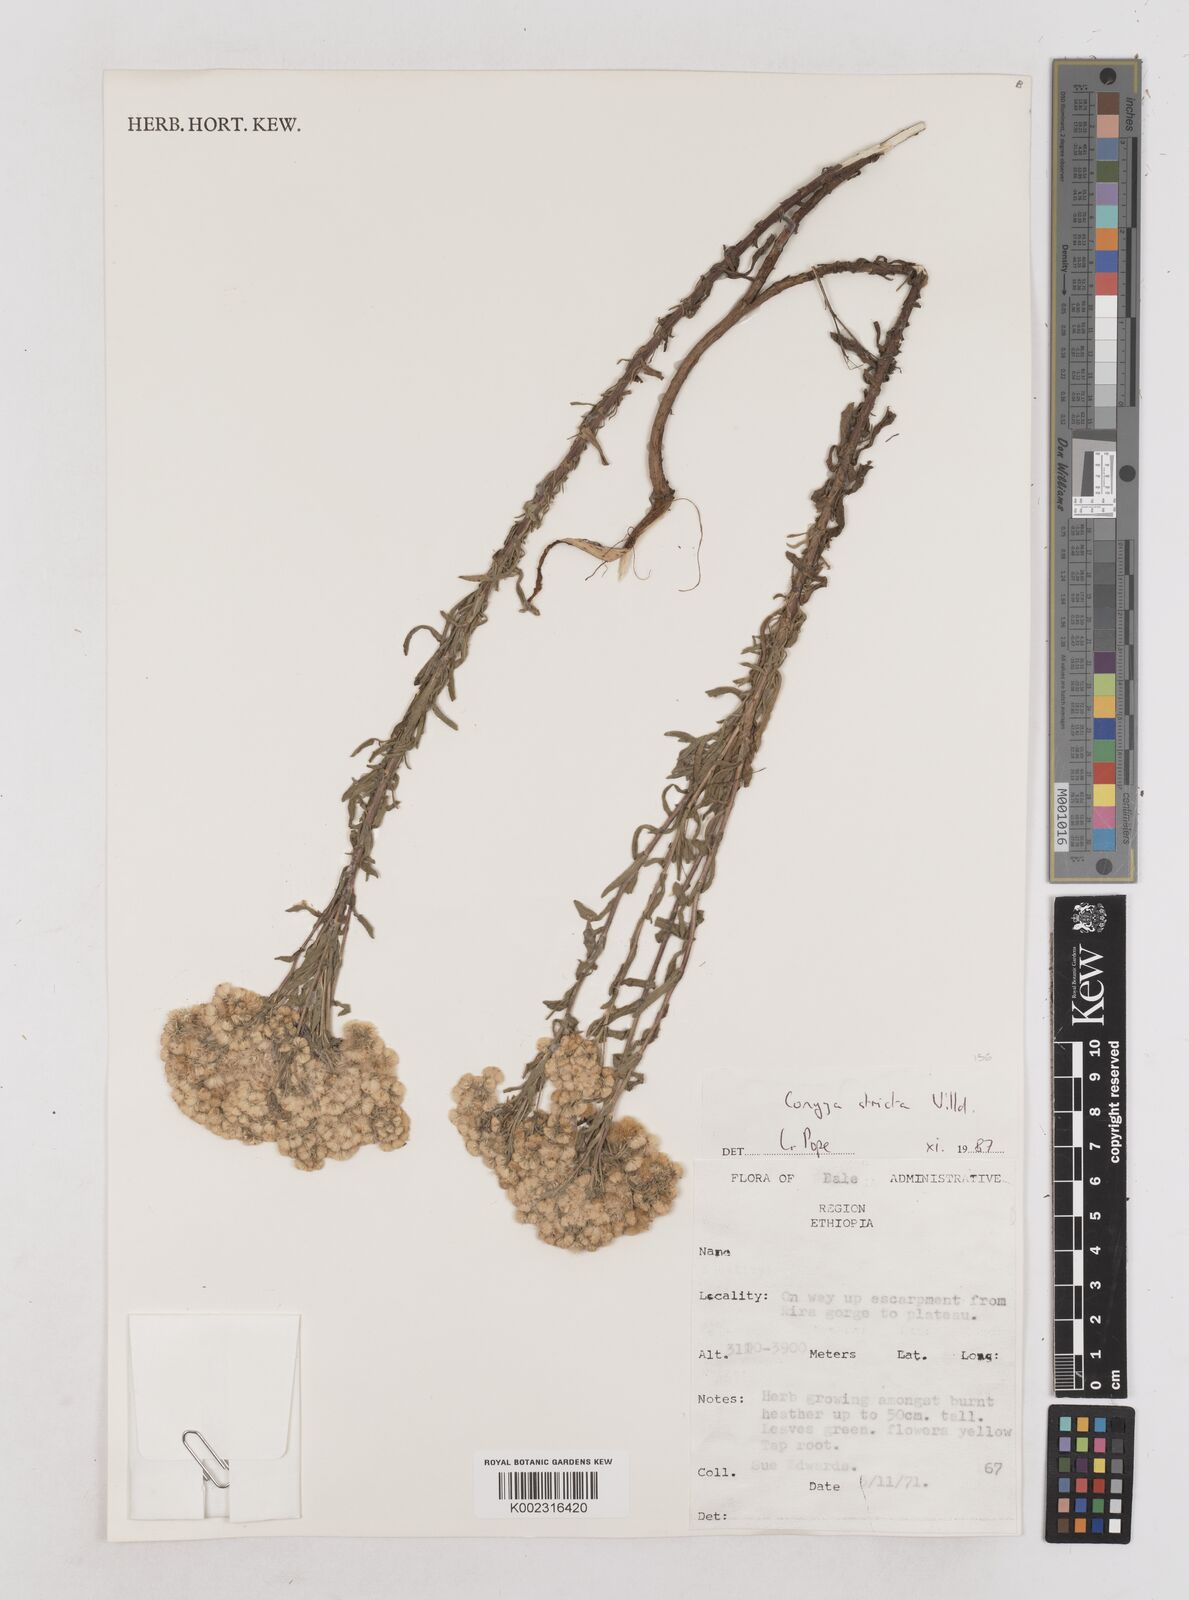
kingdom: Plantae
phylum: Tracheophyta
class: Magnoliopsida
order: Asterales
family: Asteraceae
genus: Nidorella
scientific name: Nidorella triloba
